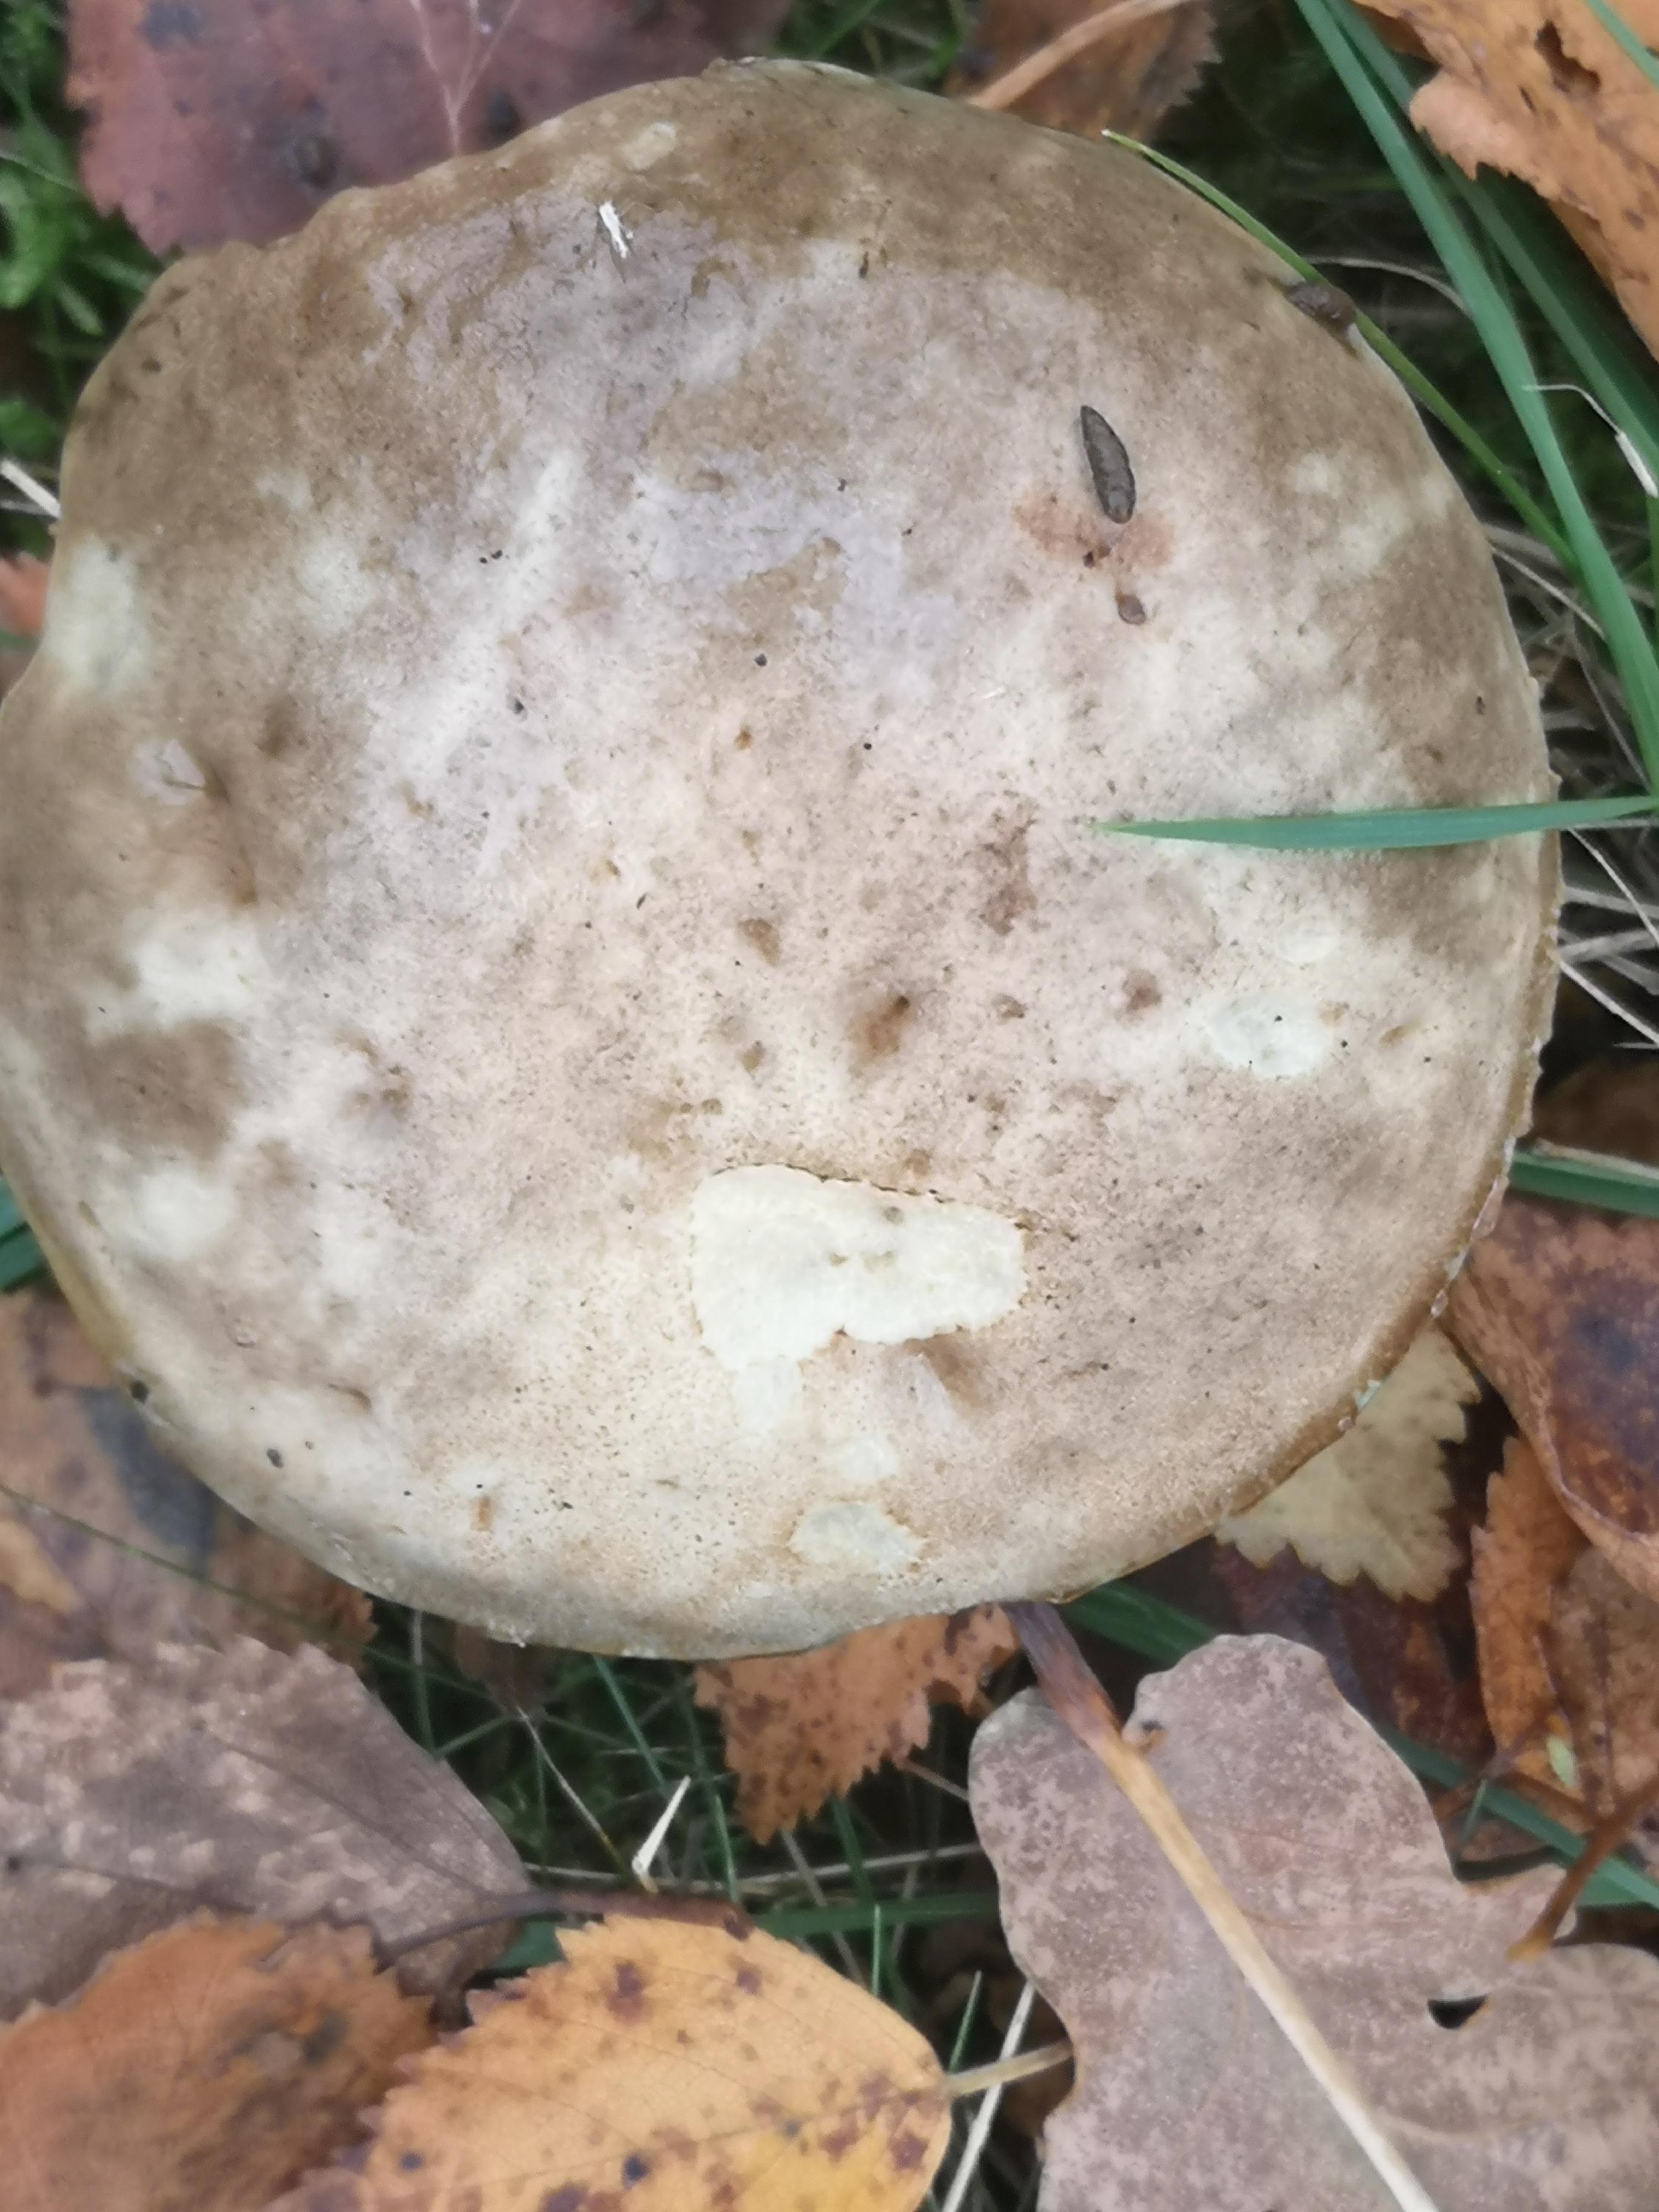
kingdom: Fungi
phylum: Basidiomycota
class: Agaricomycetes
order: Boletales
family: Boletaceae
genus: Leccinum
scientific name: Leccinum variicolor
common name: flammet skælrørhat
